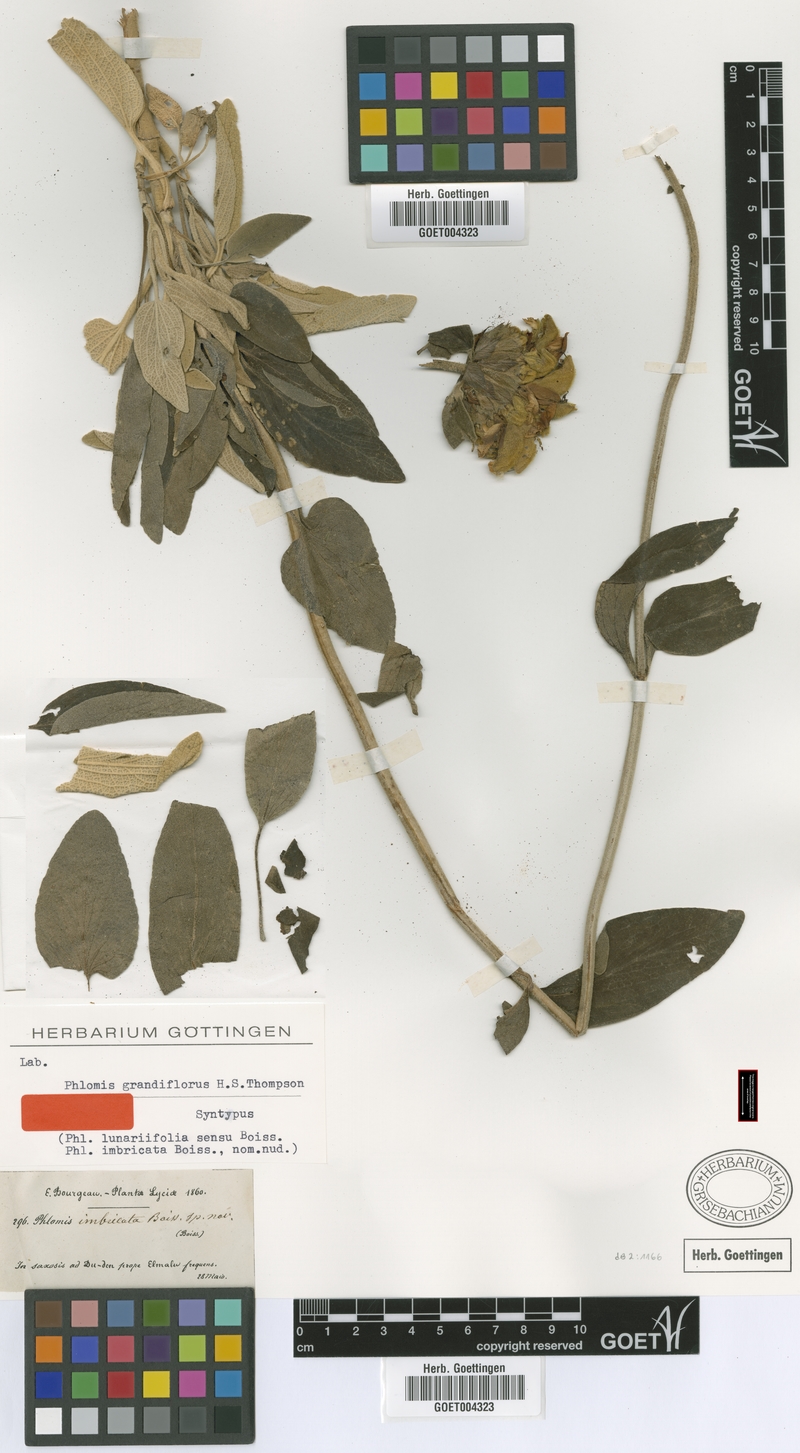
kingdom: Plantae
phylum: Tracheophyta
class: Magnoliopsida
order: Lamiales
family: Lamiaceae
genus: Phlomis
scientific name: Phlomis grandiflora
